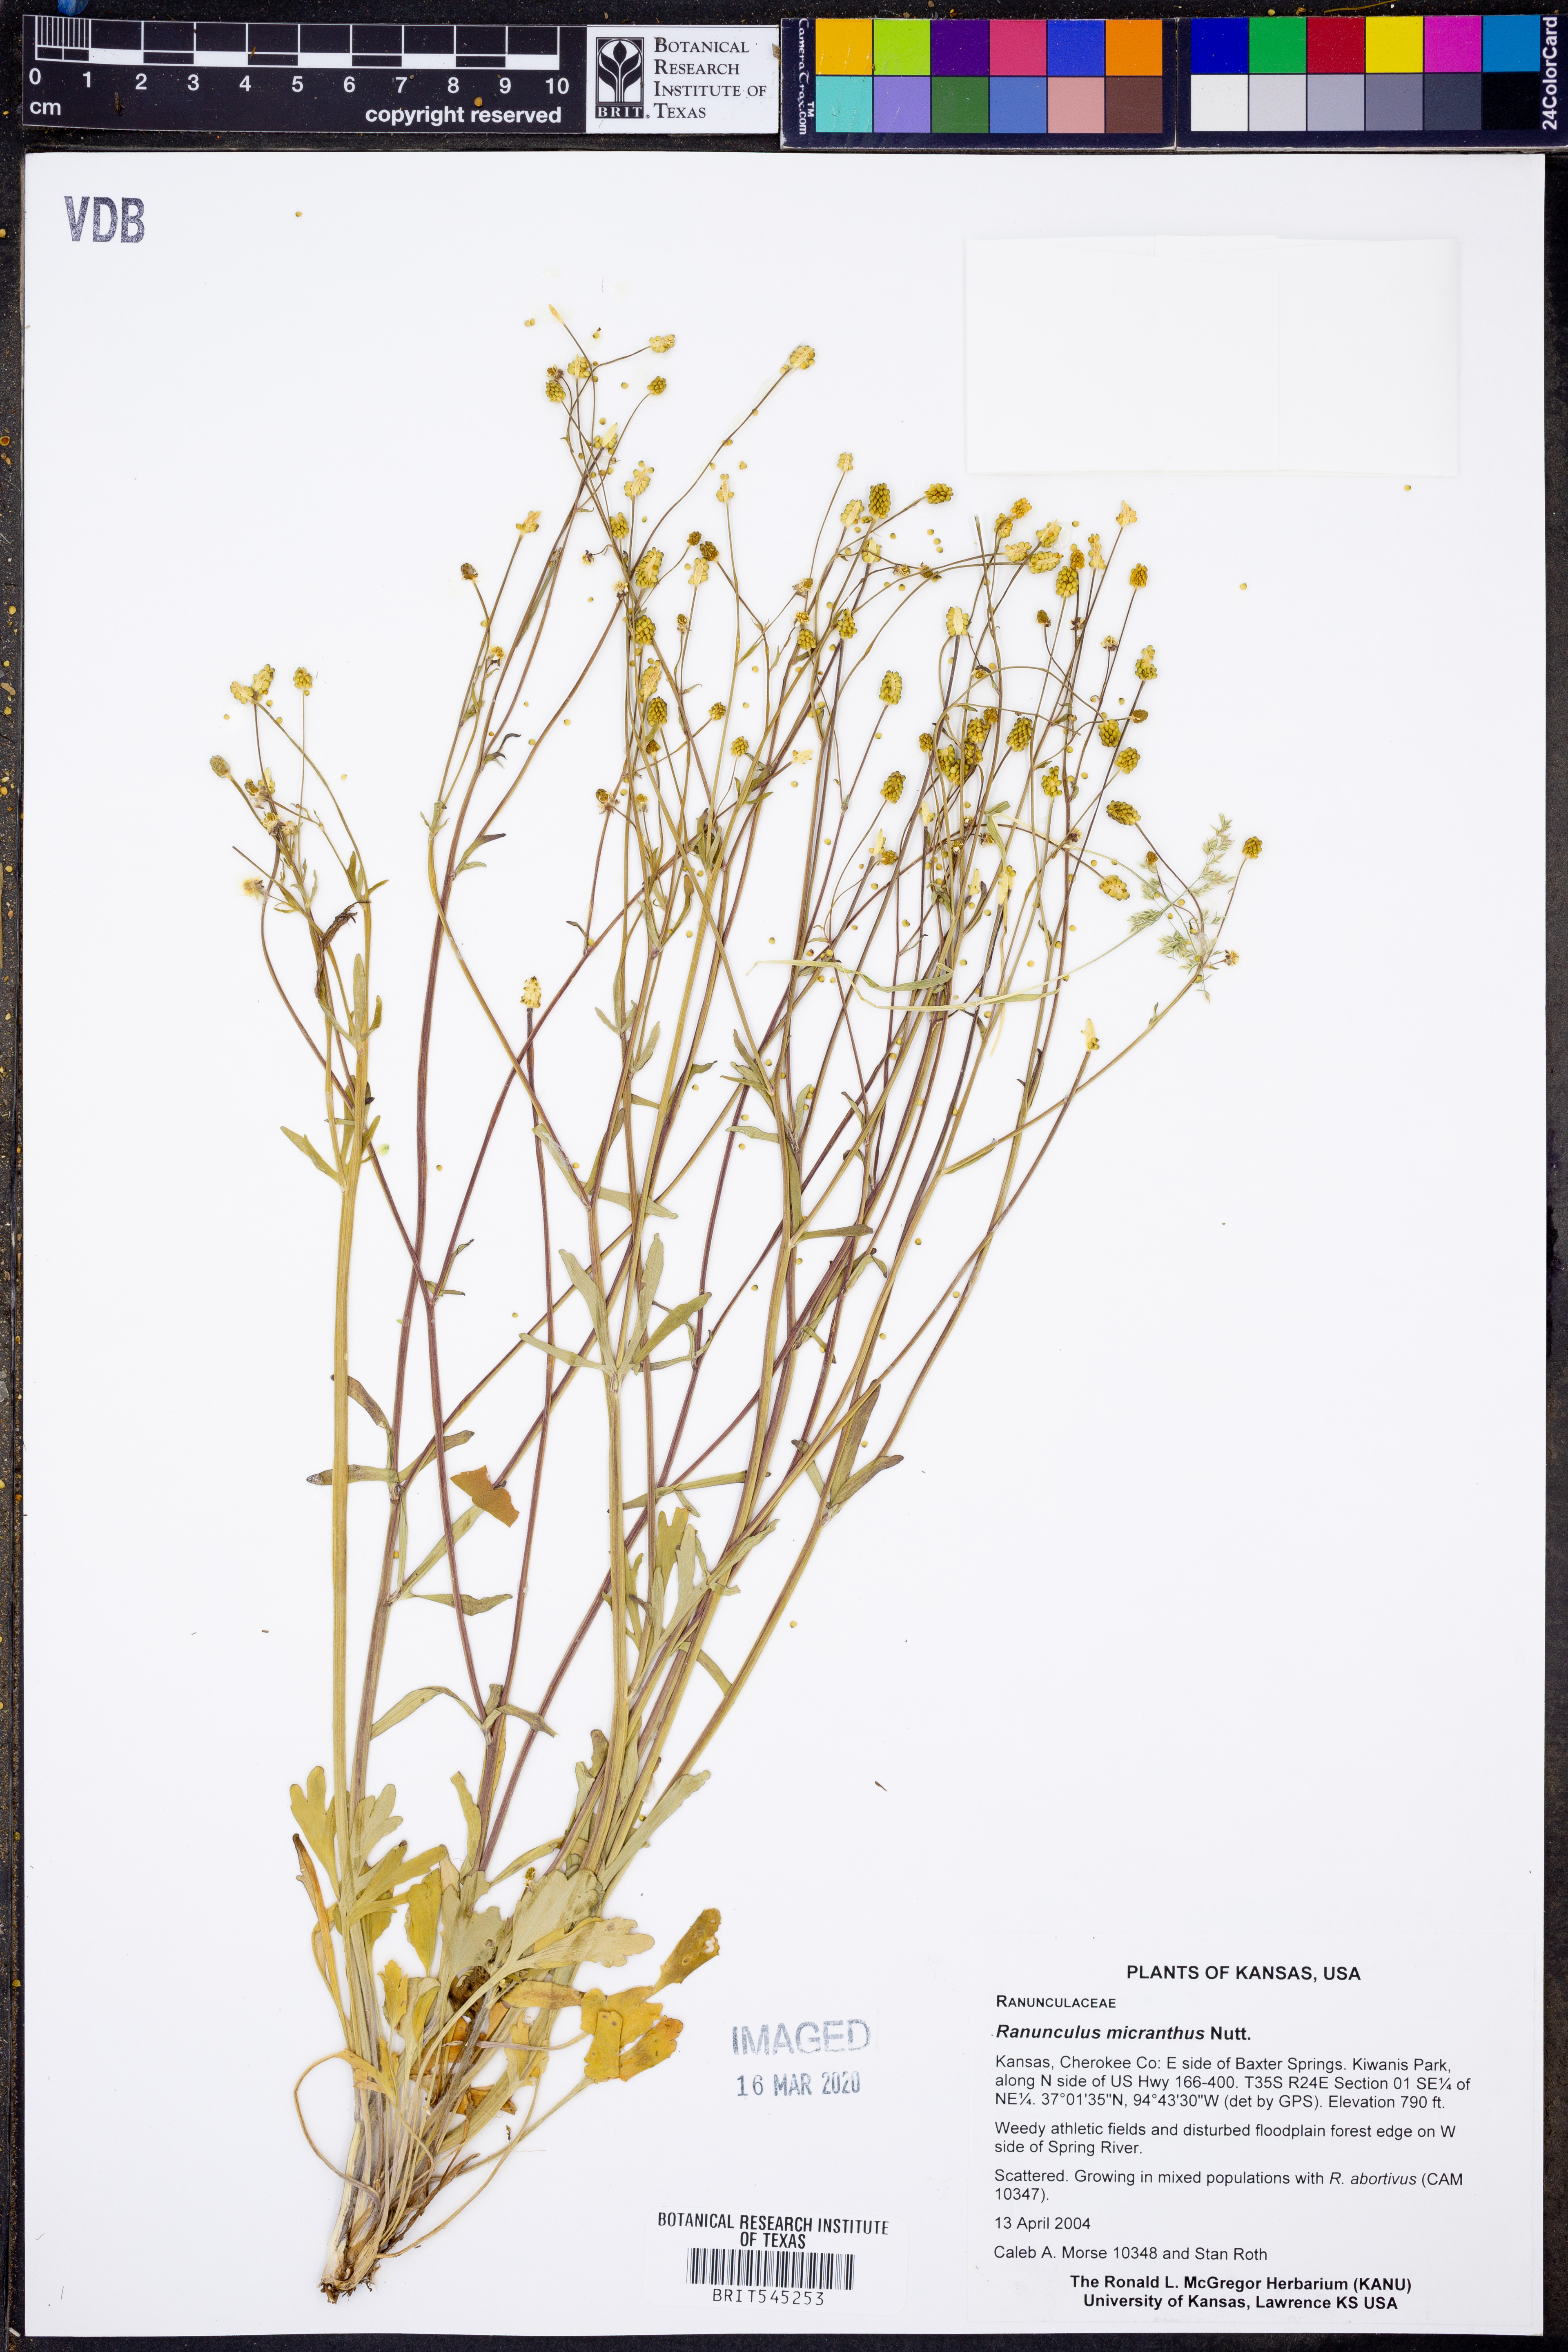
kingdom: Plantae
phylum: Tracheophyta
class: Magnoliopsida
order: Ranunculales
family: Ranunculaceae
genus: Ranunculus
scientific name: Ranunculus micranthus
